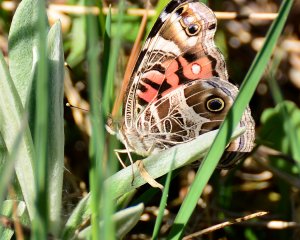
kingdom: Animalia
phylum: Arthropoda
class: Insecta
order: Lepidoptera
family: Nymphalidae
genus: Vanessa
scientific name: Vanessa virginiensis
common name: American Lady
